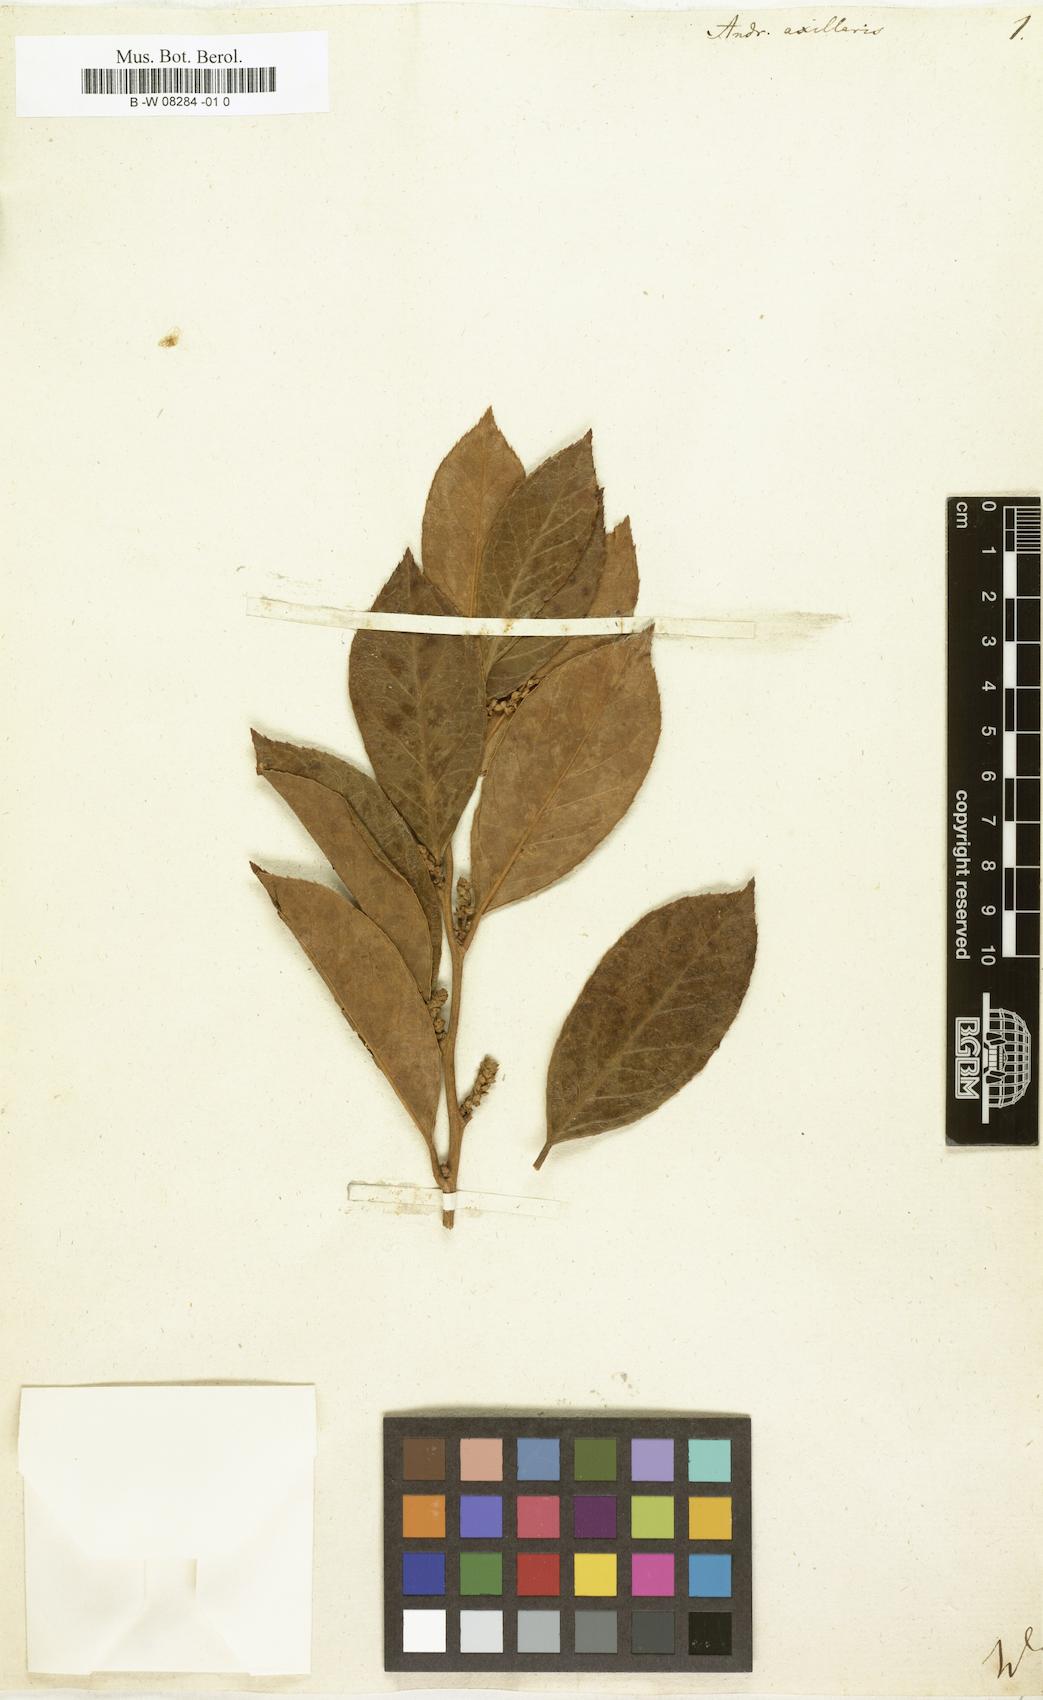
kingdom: Plantae
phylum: Tracheophyta
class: Magnoliopsida
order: Ericales
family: Ericaceae
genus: Leucothoe
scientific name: Leucothoe axillaris
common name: Leucothoe
